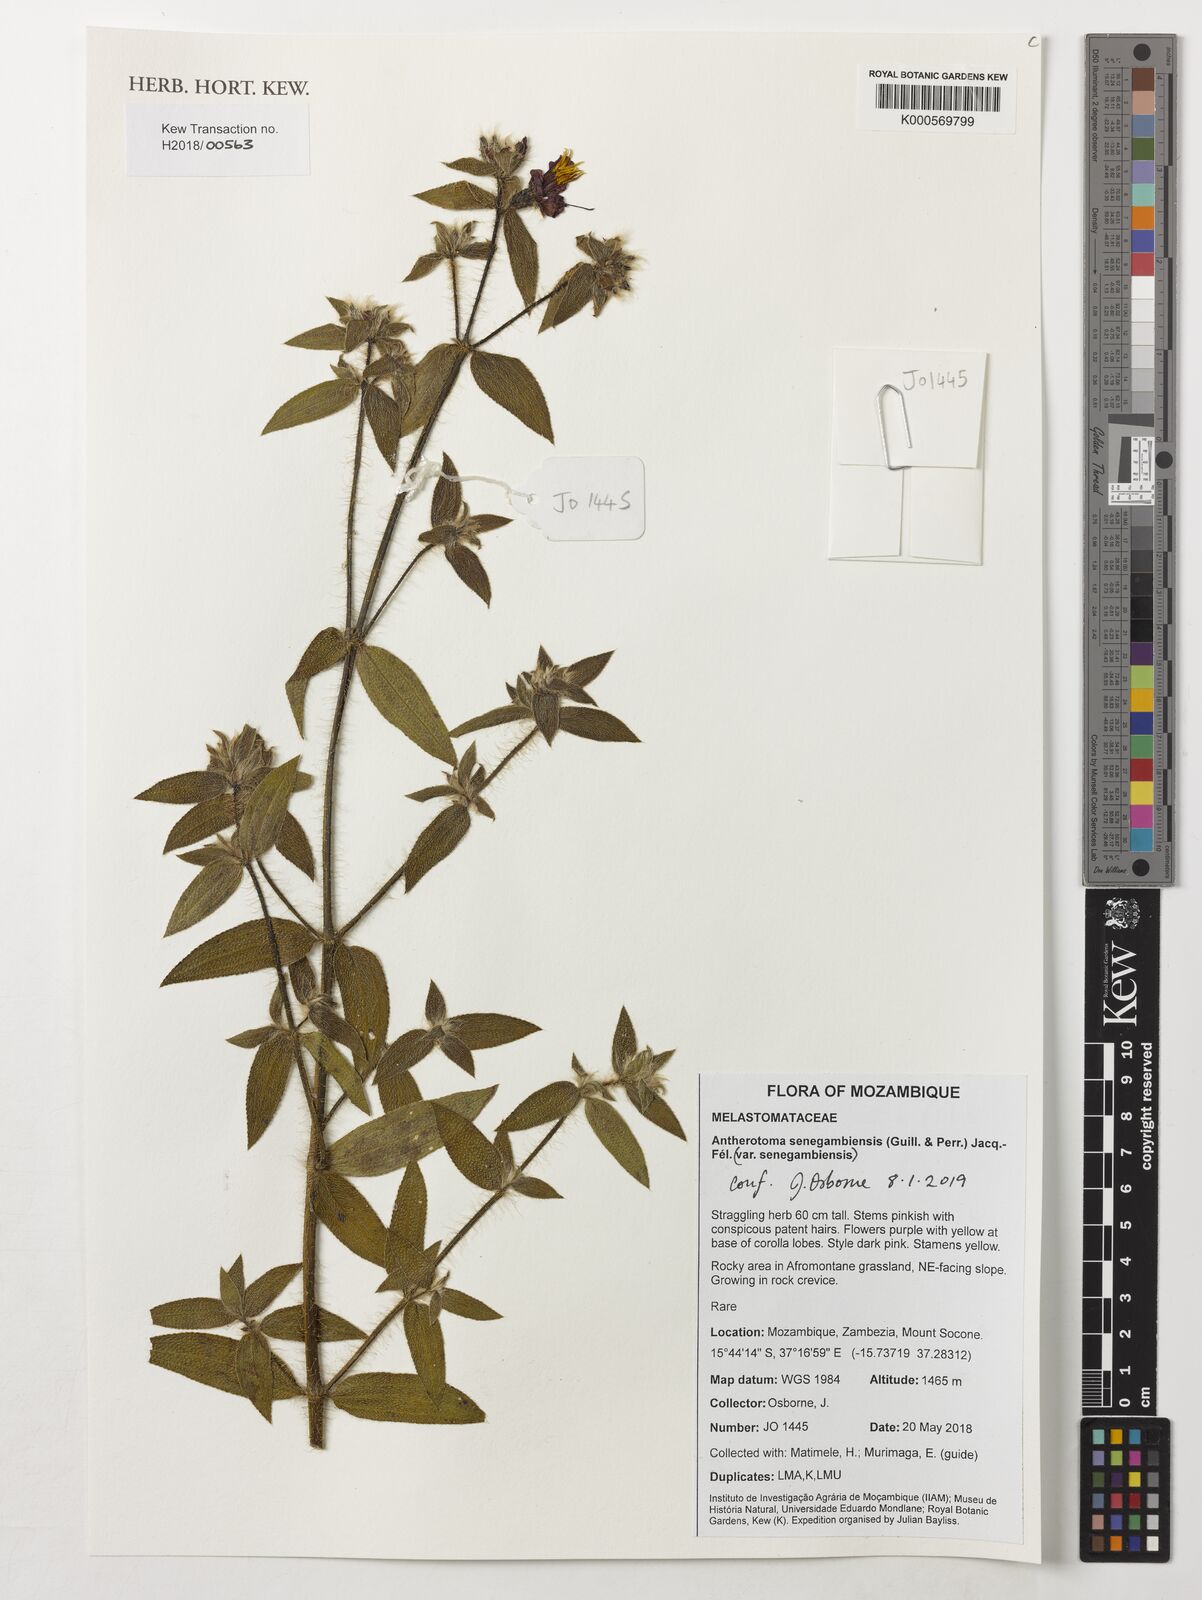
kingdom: Plantae
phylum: Tracheophyta
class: Magnoliopsida
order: Myrtales
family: Melastomataceae
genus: Nerophila
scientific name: Nerophila senegambiensis
